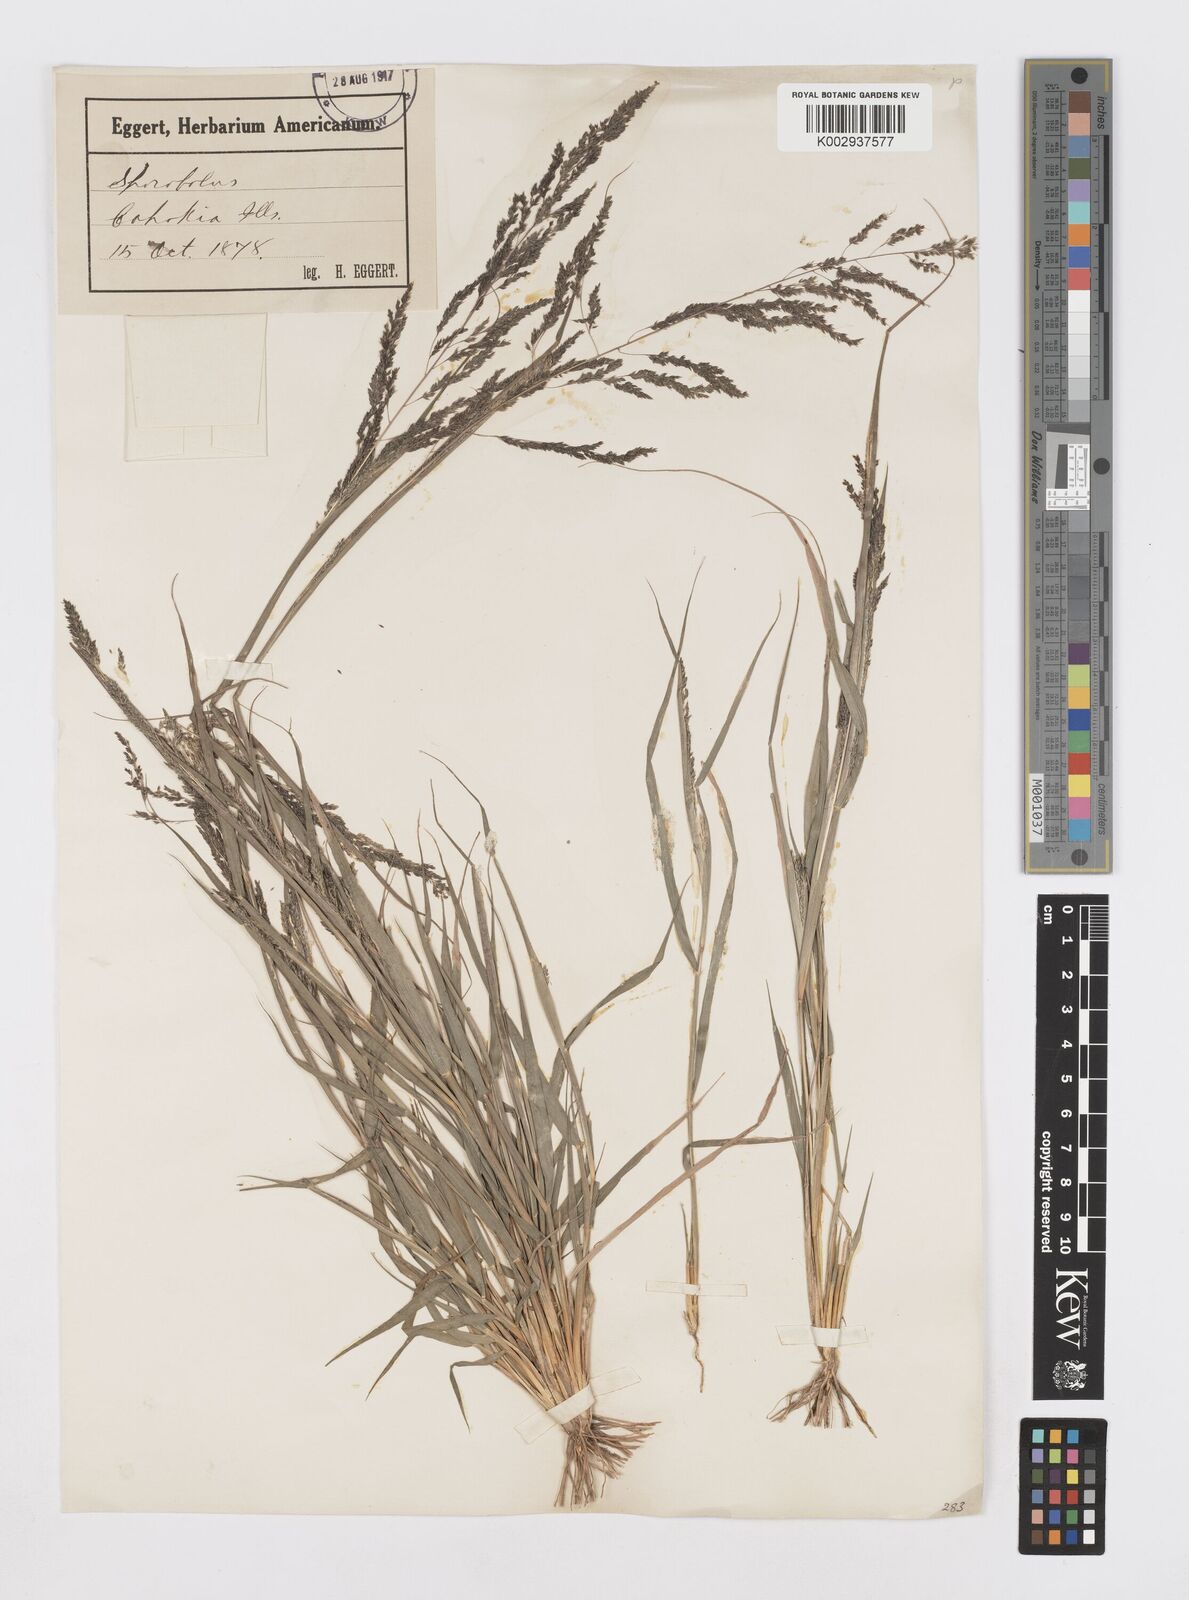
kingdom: Plantae
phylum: Tracheophyta
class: Liliopsida
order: Poales
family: Poaceae
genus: Sporobolus
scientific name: Sporobolus
